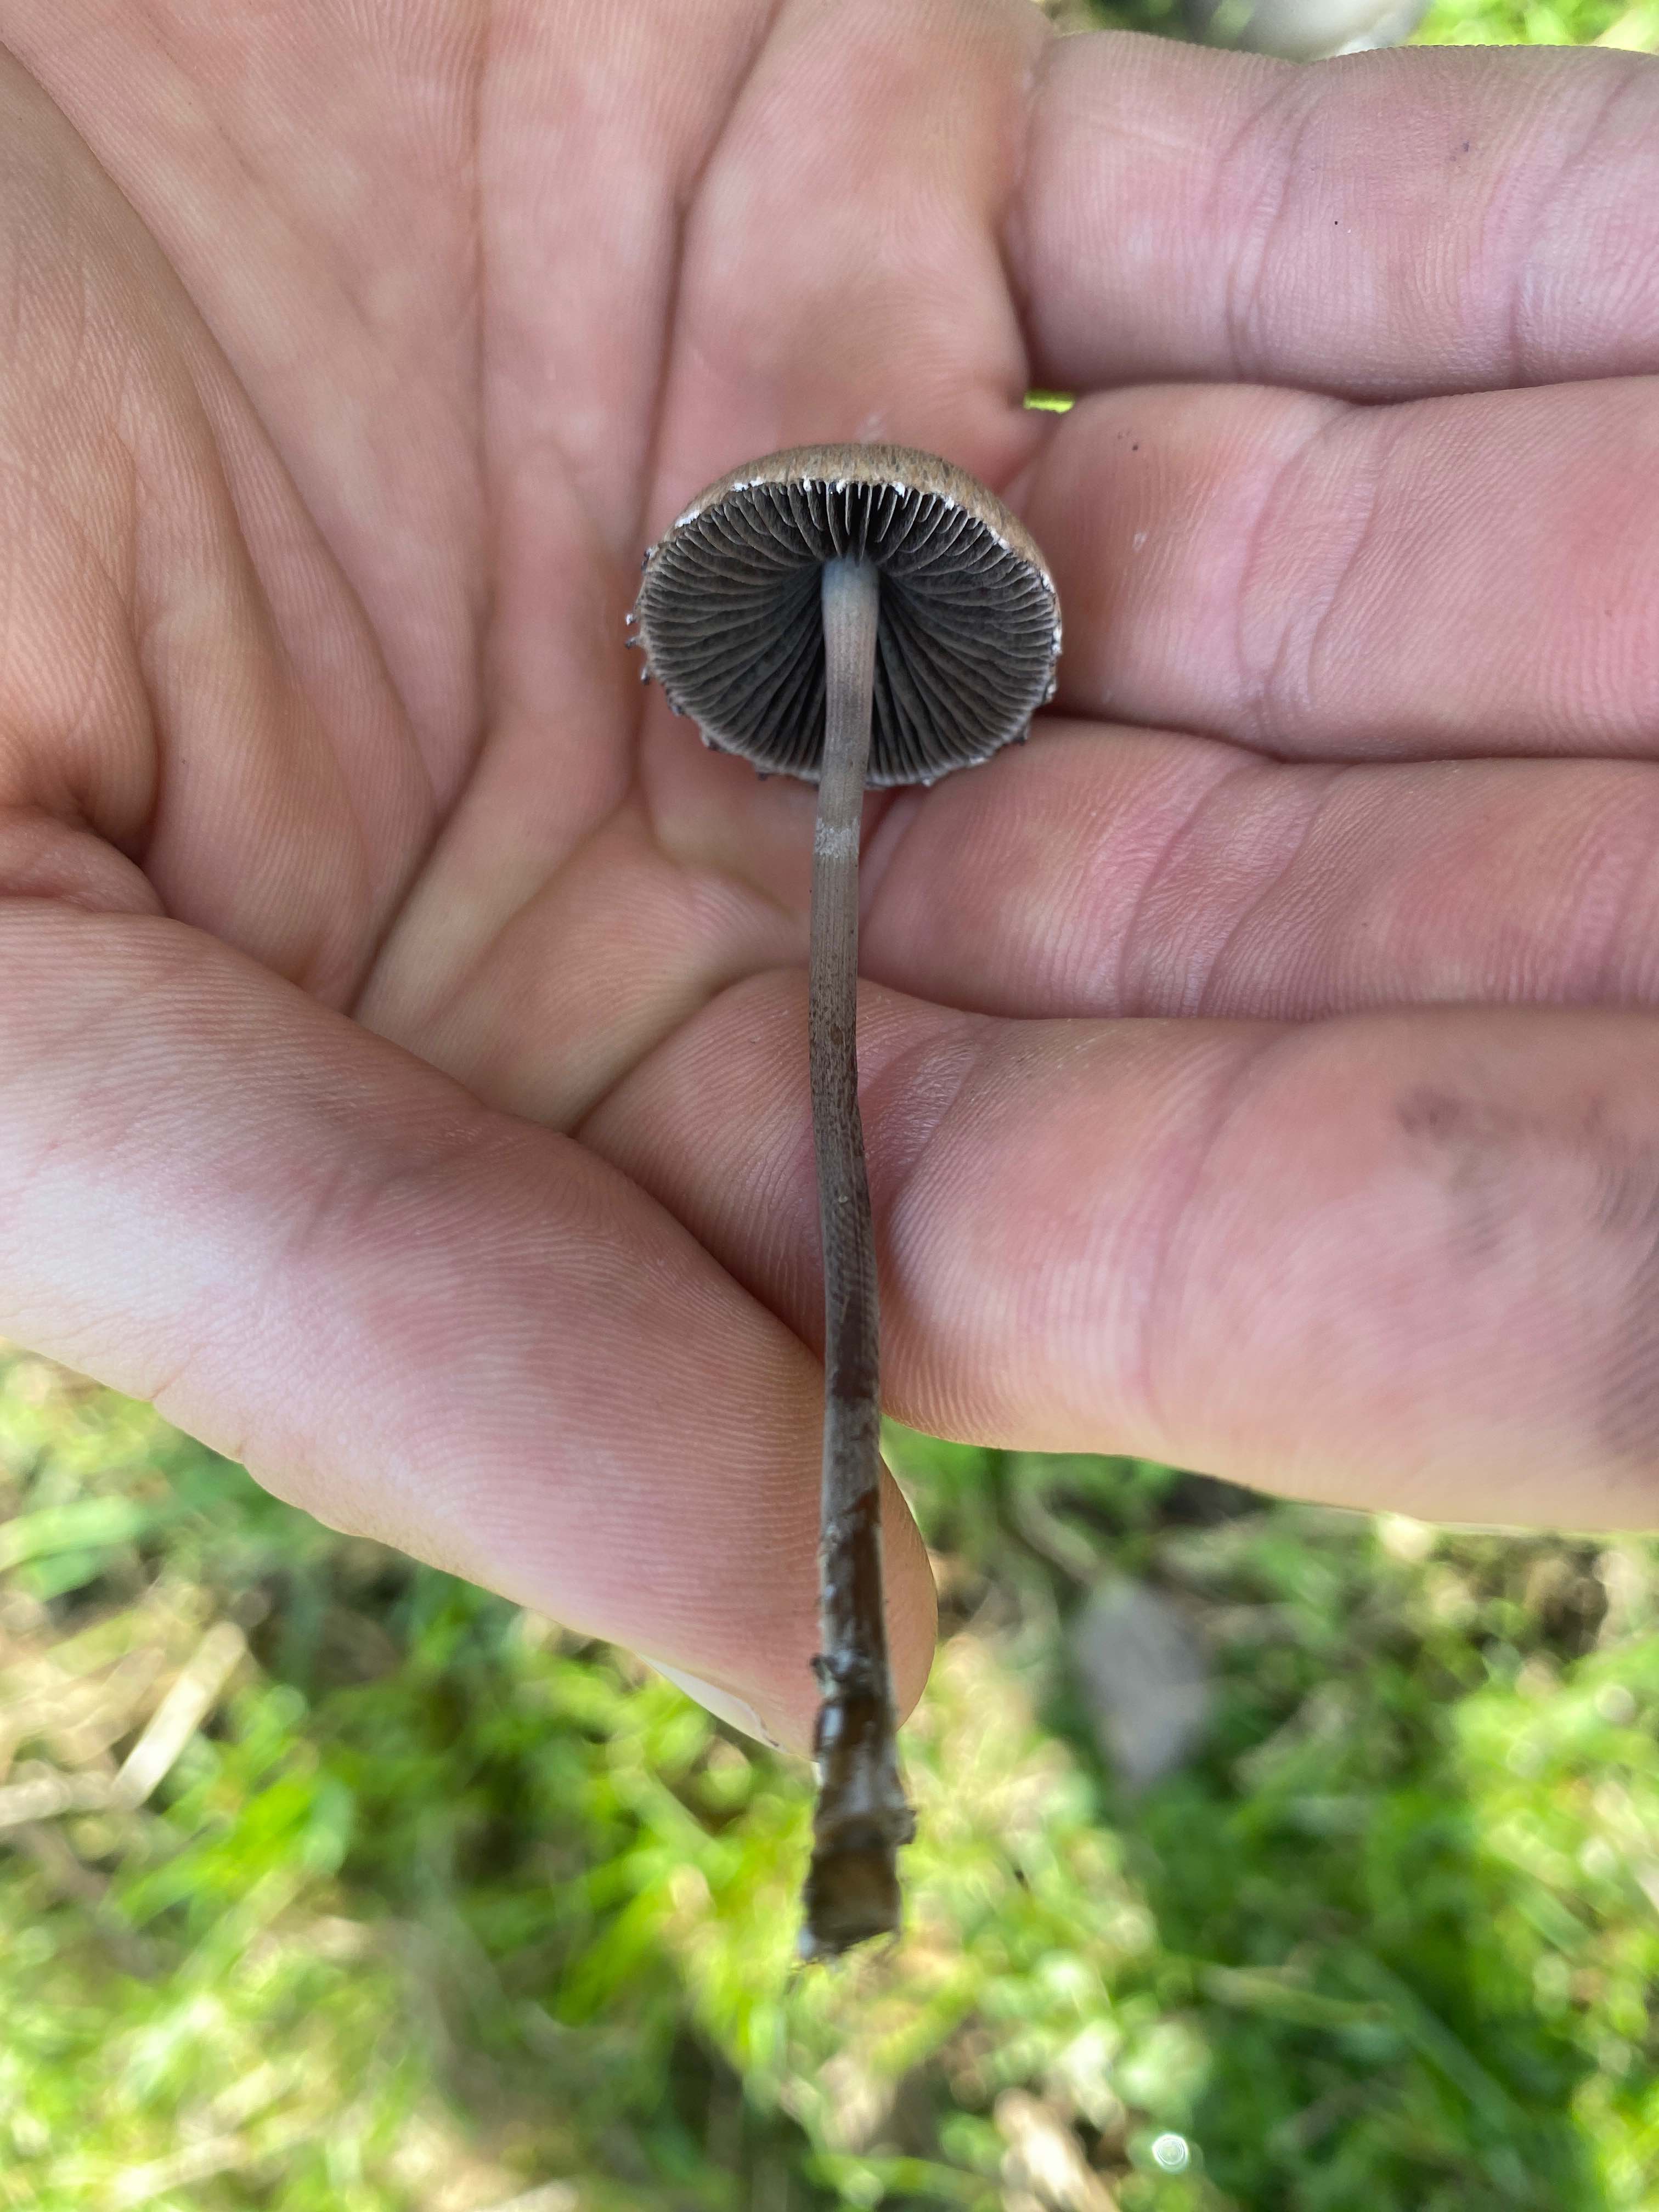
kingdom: Fungi
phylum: Basidiomycota
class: Agaricomycetes
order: Agaricales
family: Bolbitiaceae
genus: Panaeolus
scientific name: Panaeolus papilionaceus
